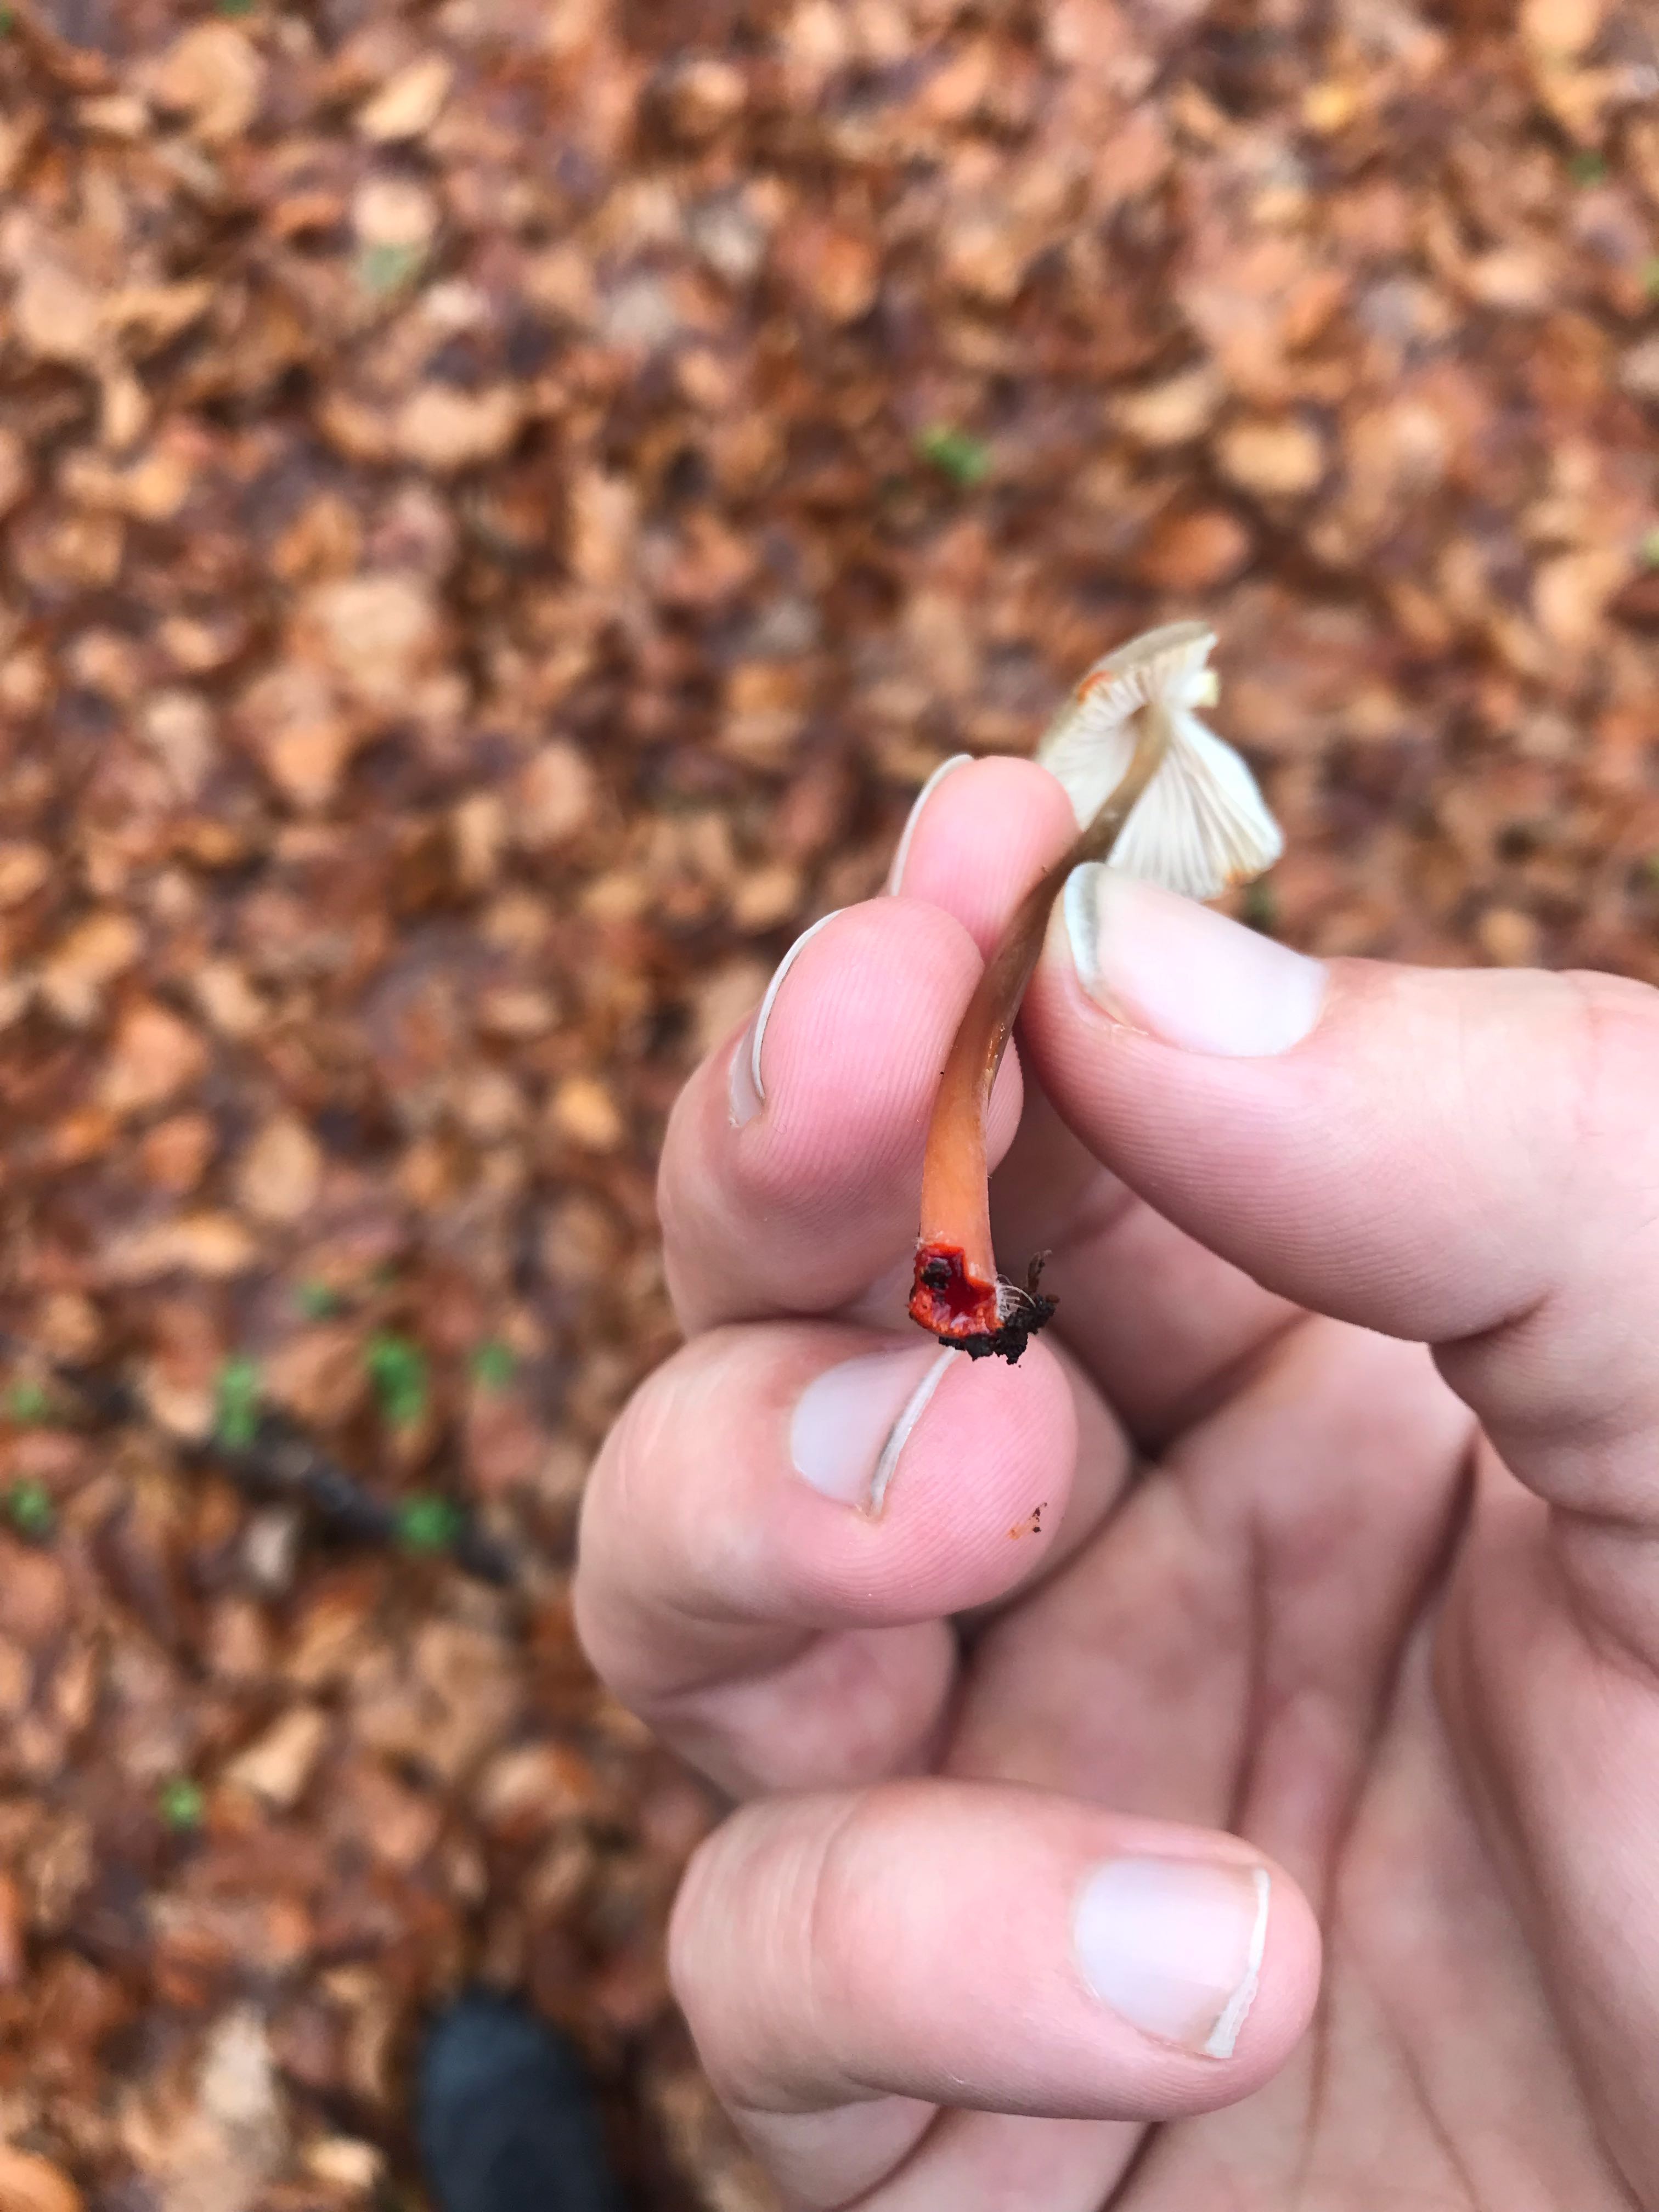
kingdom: Fungi
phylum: Basidiomycota
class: Agaricomycetes
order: Agaricales
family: Mycenaceae
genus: Mycena
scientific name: Mycena crocata
